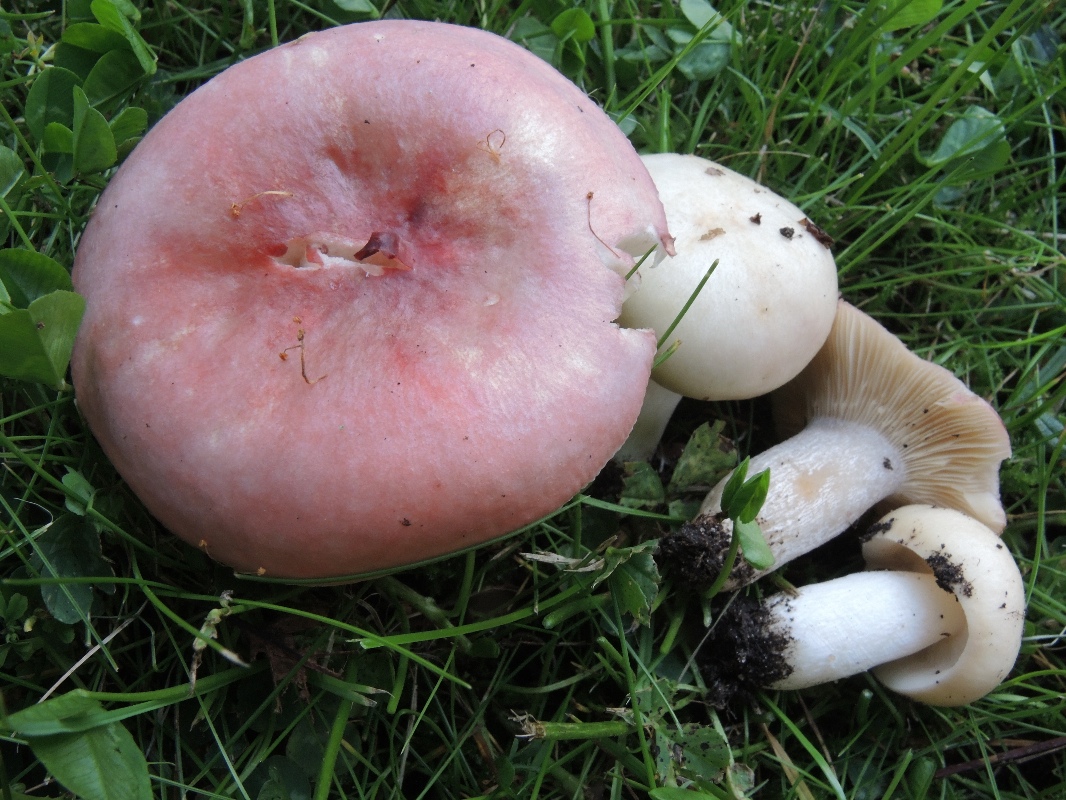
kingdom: Fungi
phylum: Basidiomycota
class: Agaricomycetes
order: Russulales
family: Russulaceae
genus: Russula
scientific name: Russula depallens
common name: falmende skørhat
